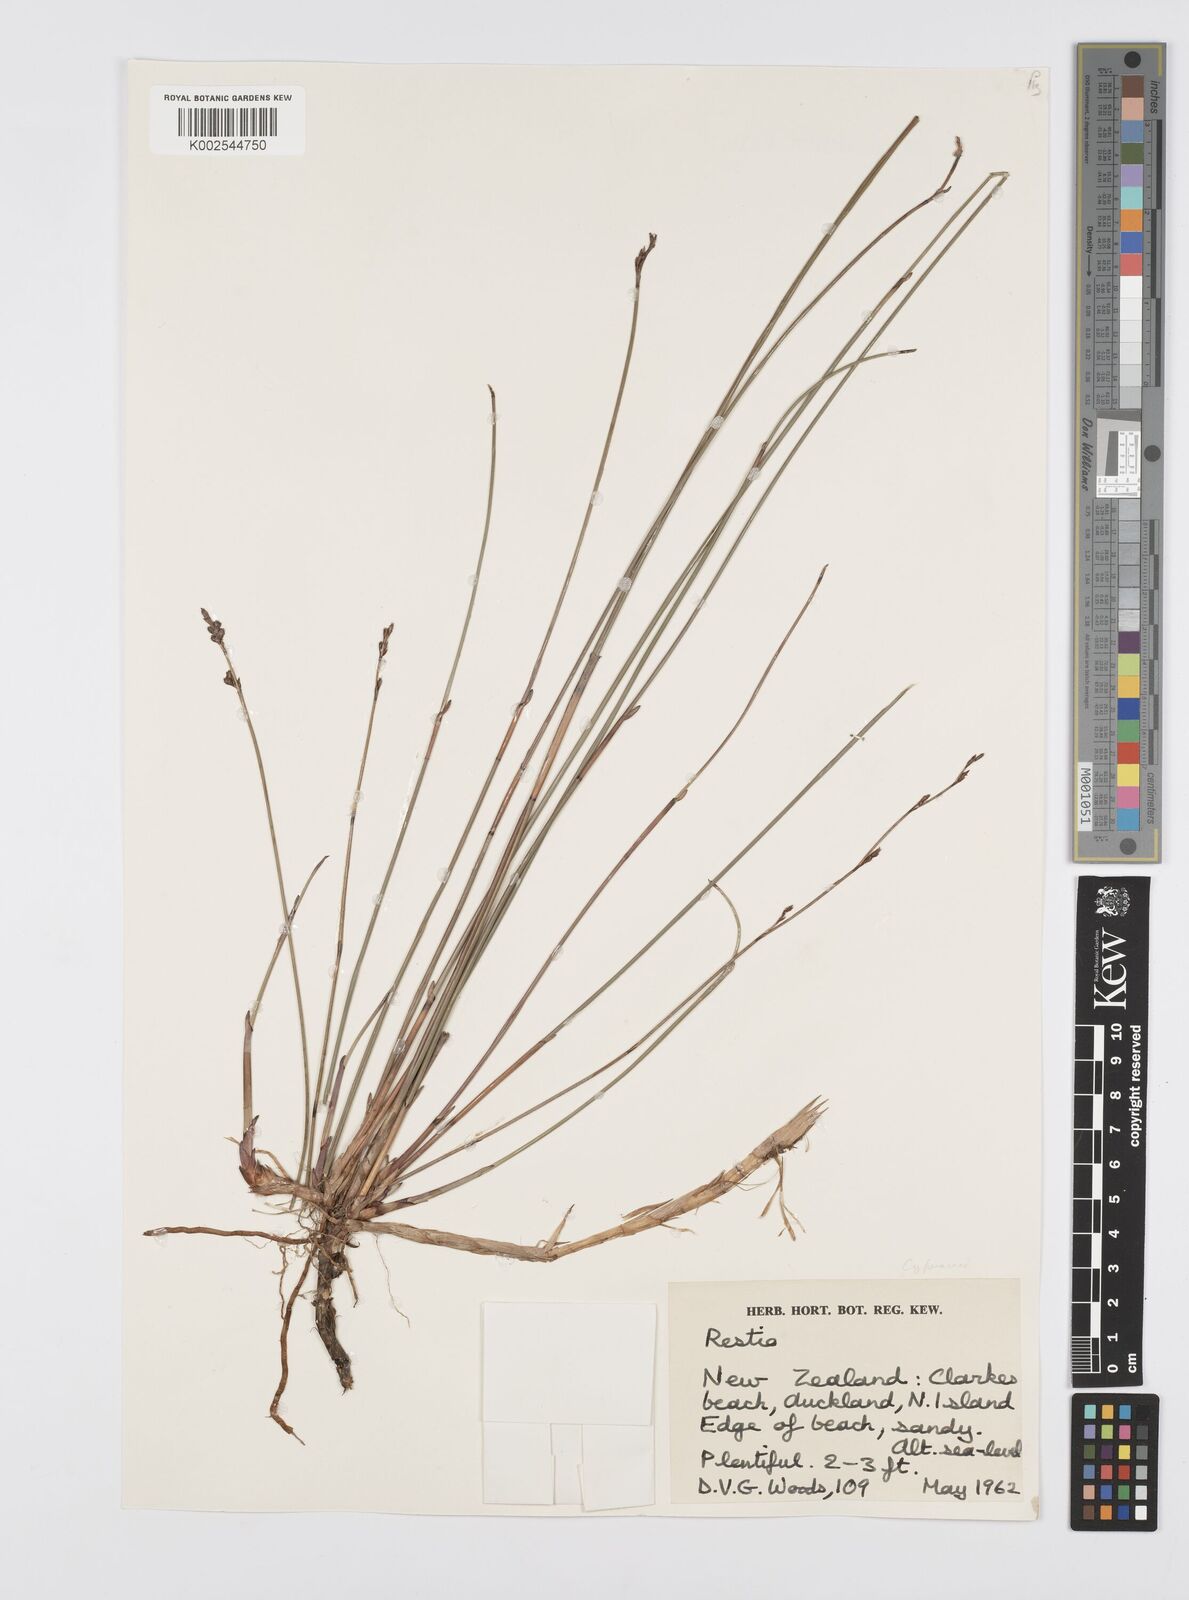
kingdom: Plantae
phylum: Tracheophyta
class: Liliopsida
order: Poales
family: Cyperaceae
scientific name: Cyperaceae
